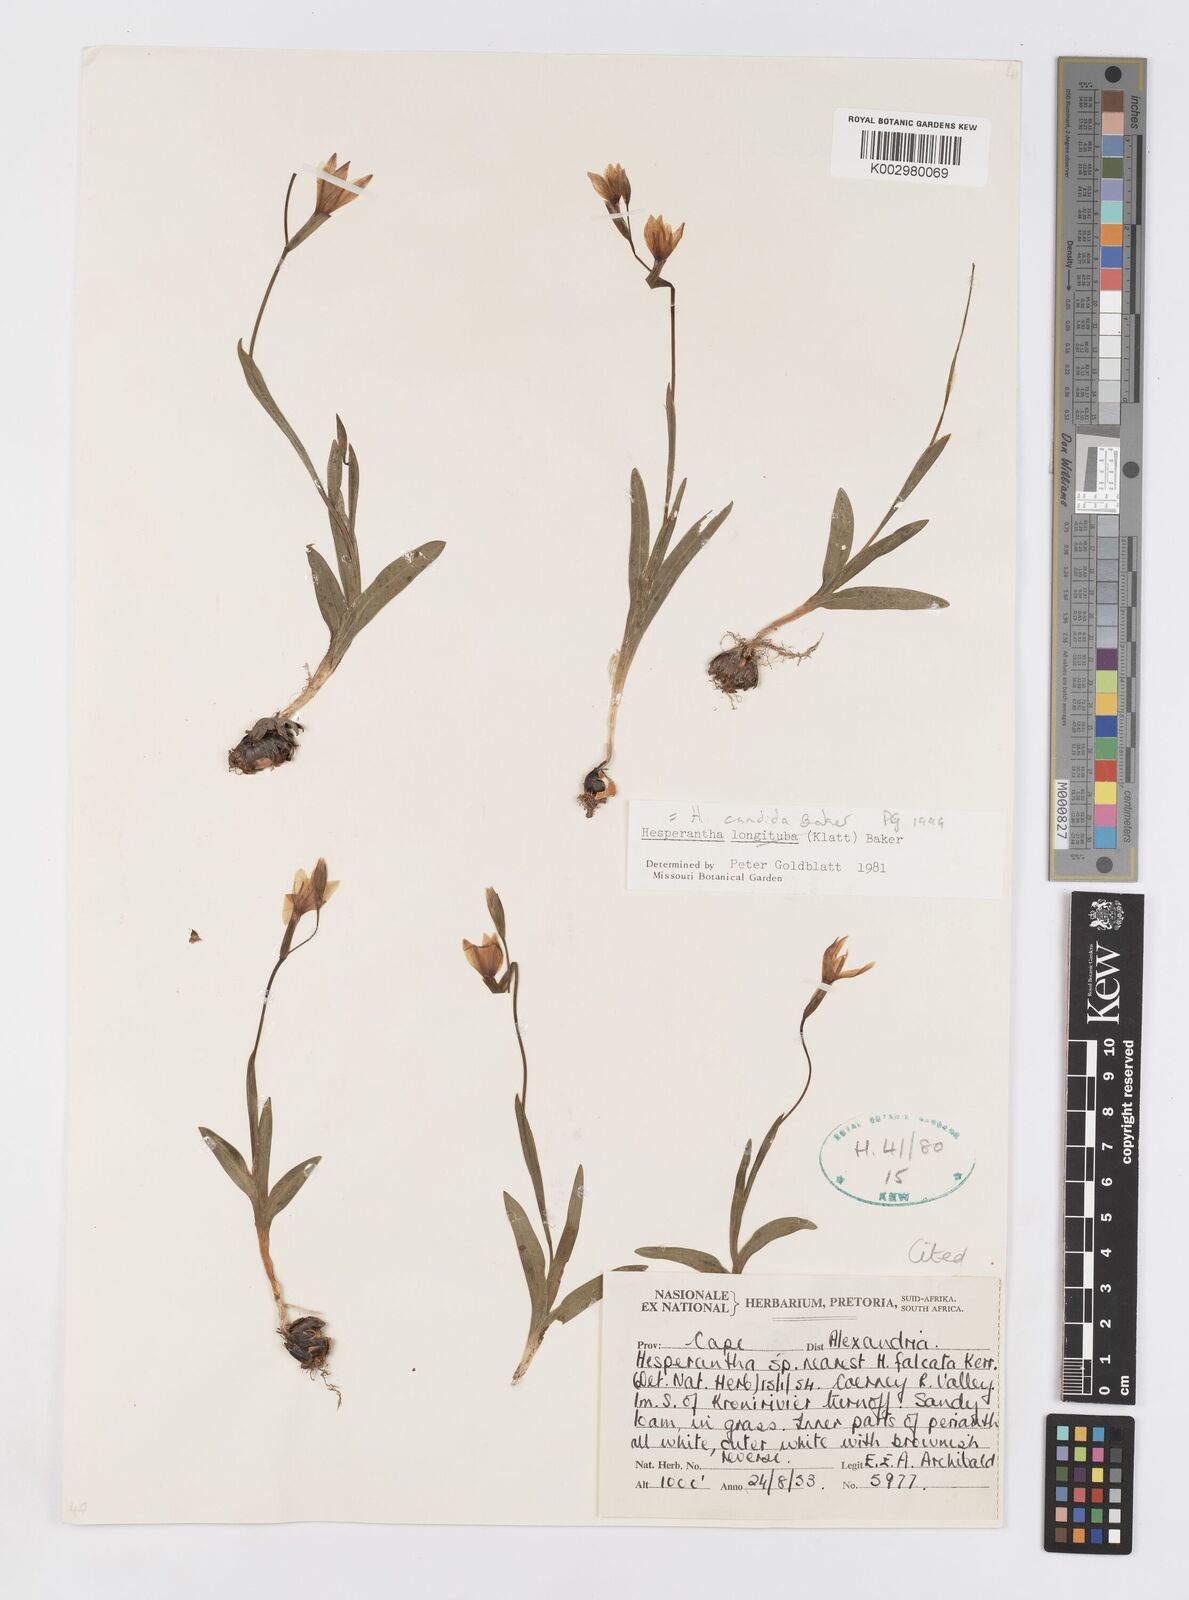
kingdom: Plantae
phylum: Tracheophyta
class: Liliopsida
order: Asparagales
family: Iridaceae
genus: Hesperantha
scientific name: Hesperantha candida
